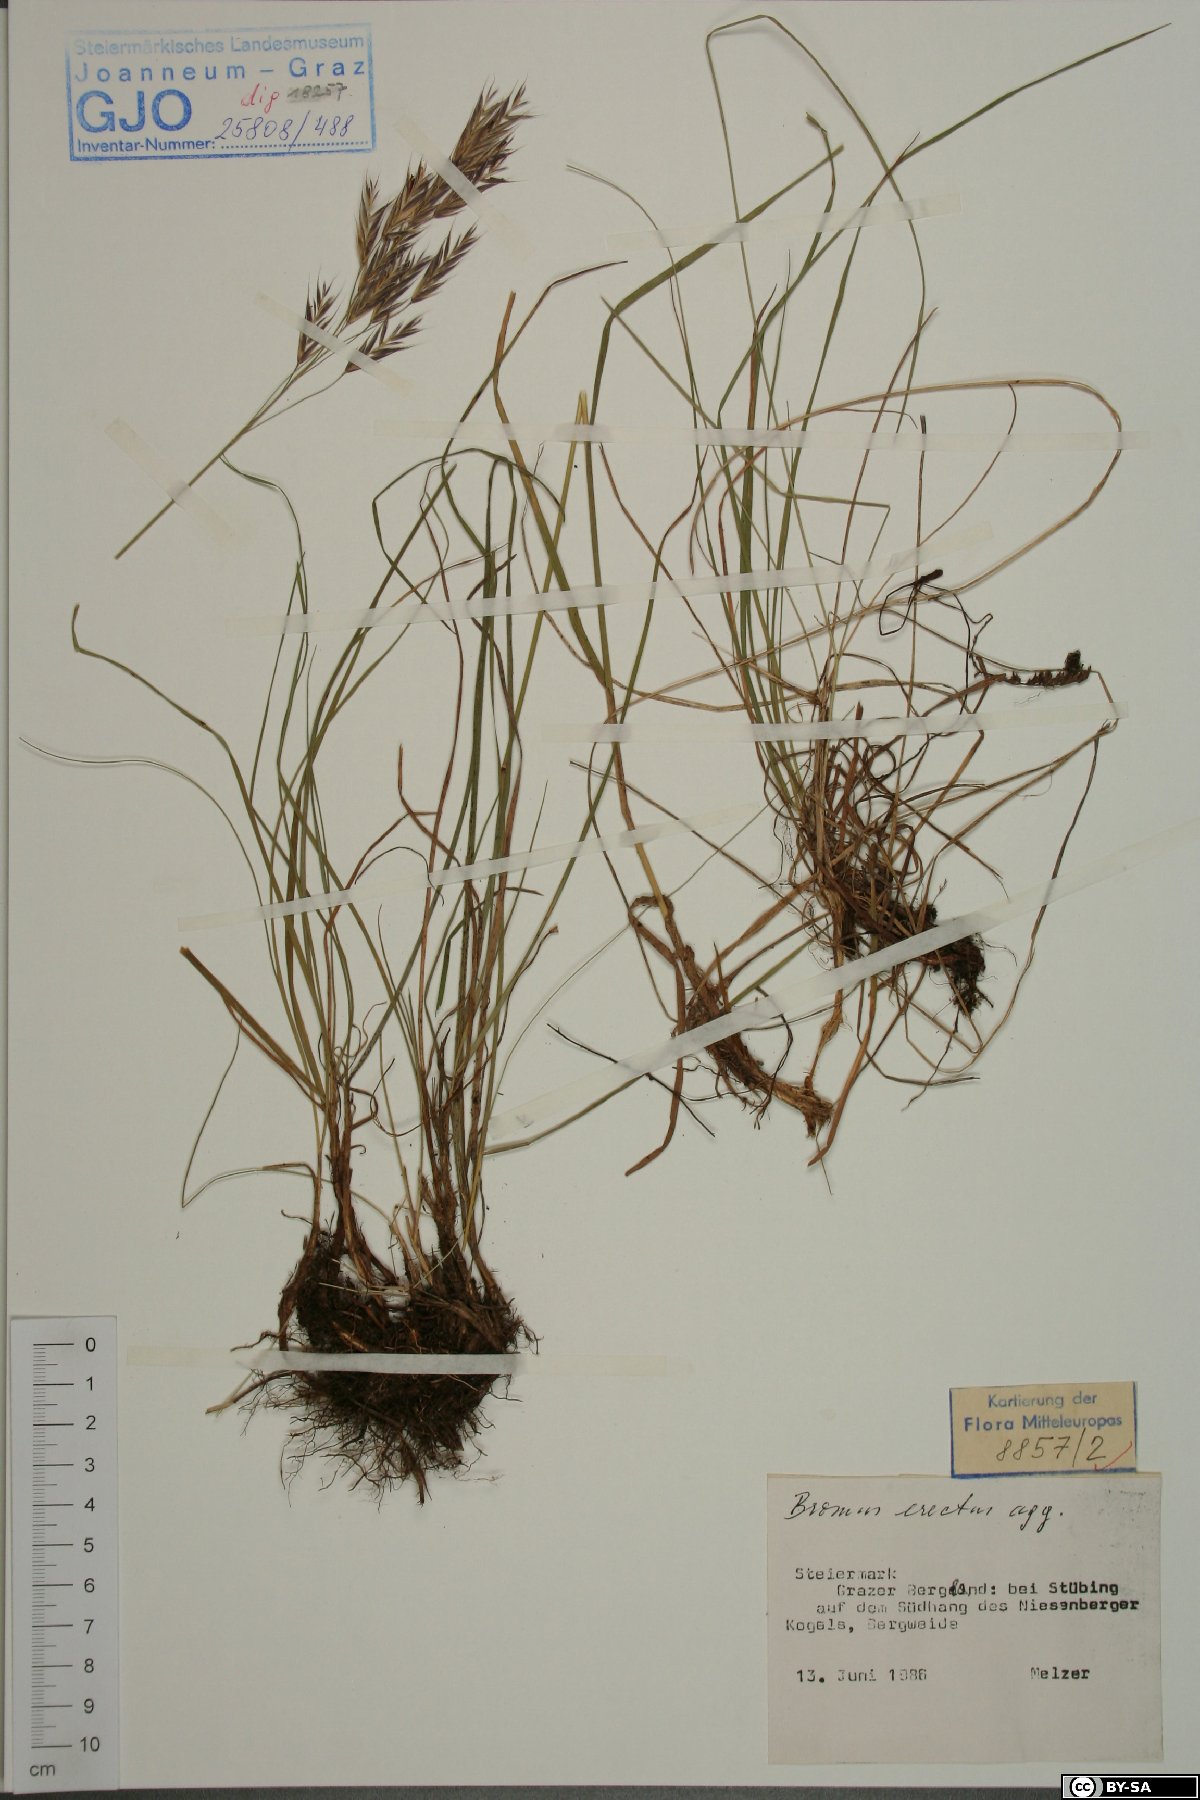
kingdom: Plantae
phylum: Tracheophyta
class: Liliopsida
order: Poales
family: Poaceae
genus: Bromus
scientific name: Bromus erectus
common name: Erect brome
